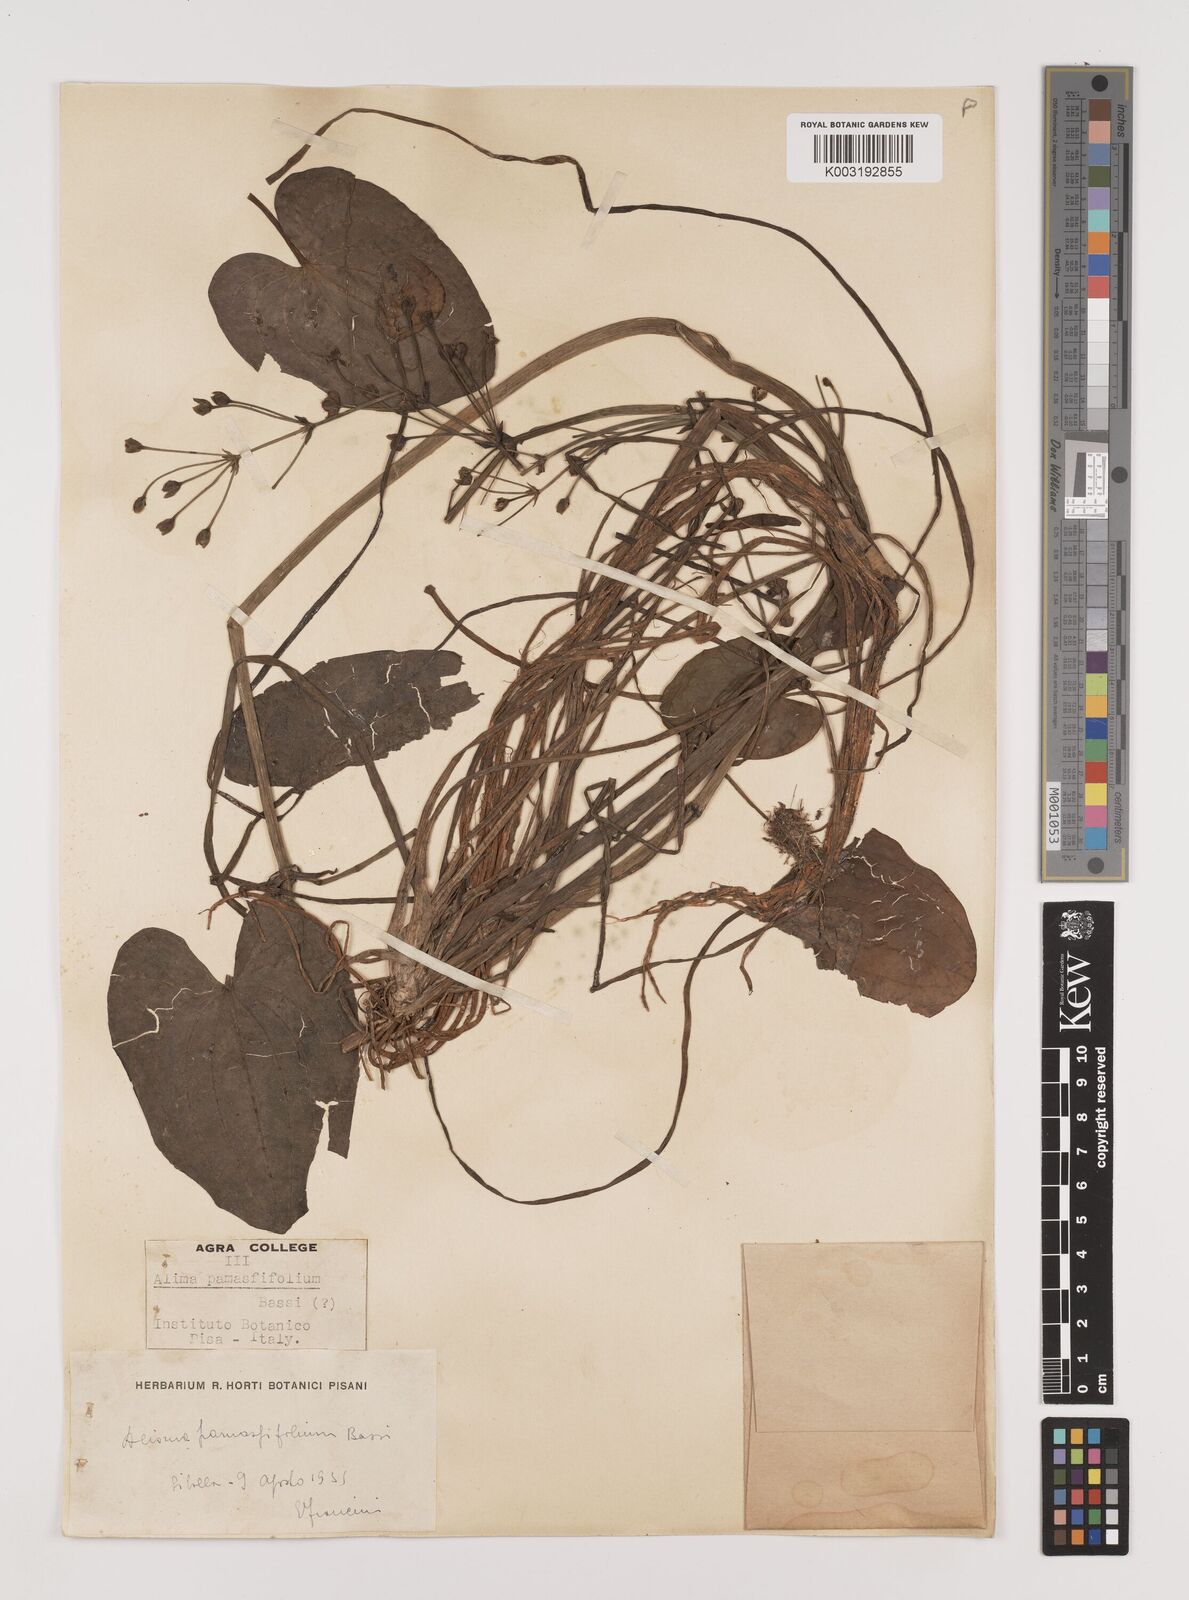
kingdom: Plantae
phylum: Tracheophyta
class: Liliopsida
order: Alismatales
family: Alismataceae
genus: Caldesia
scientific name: Caldesia parnassifolia
